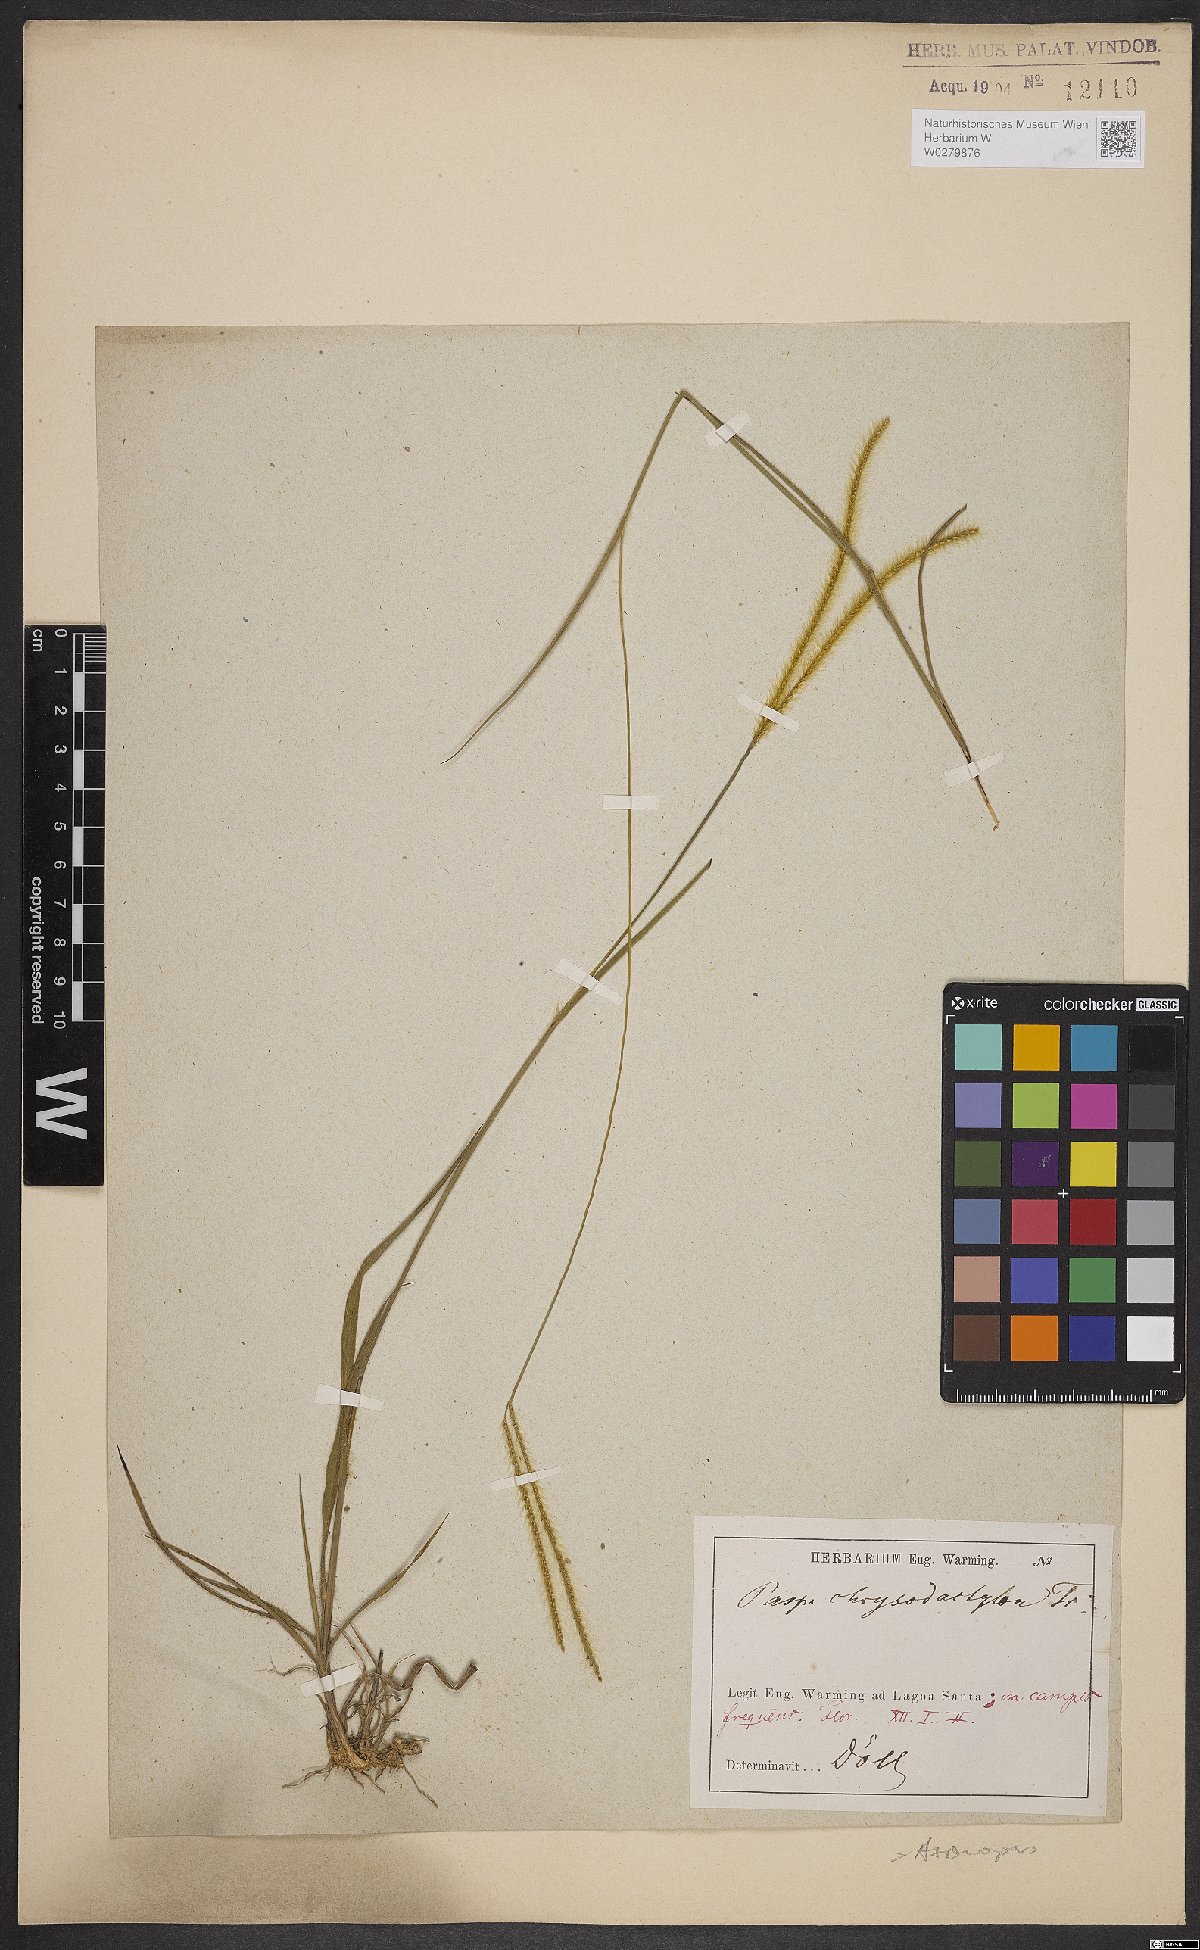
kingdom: Plantae
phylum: Tracheophyta
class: Liliopsida
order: Poales
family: Poaceae
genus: Axonopus
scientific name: Axonopus aureus
